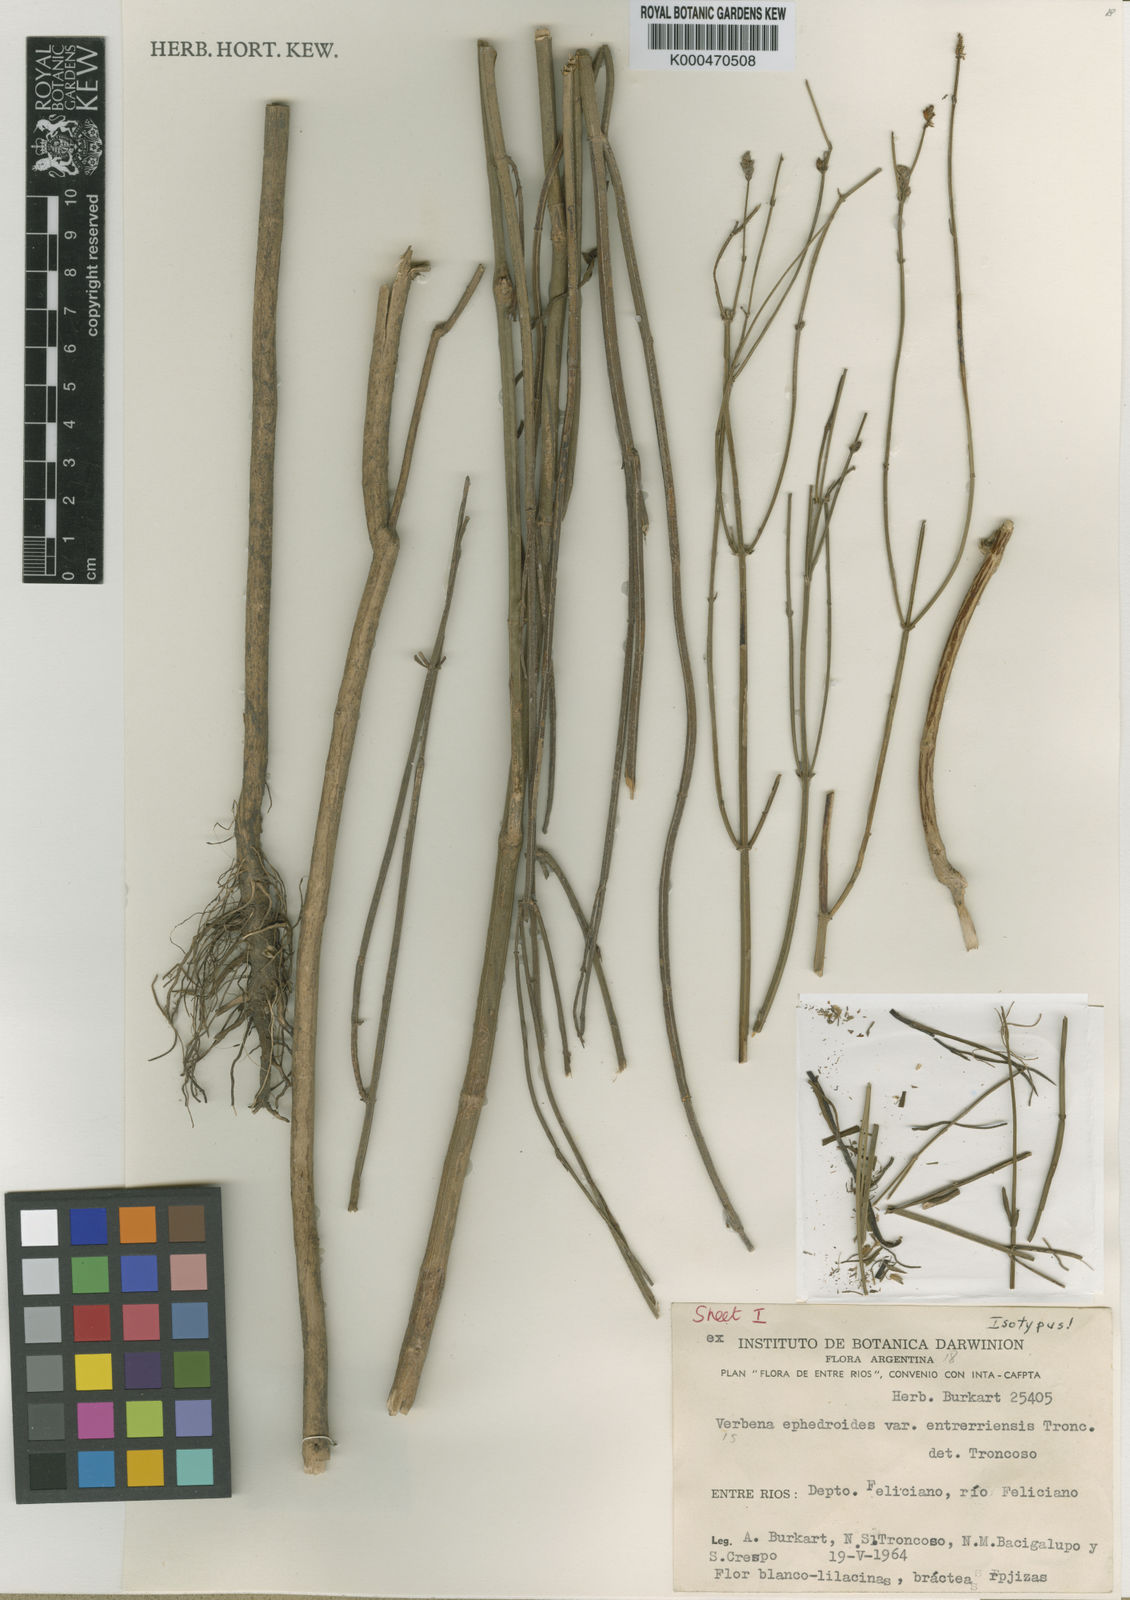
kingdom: Plantae
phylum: Tracheophyta
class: Magnoliopsida
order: Lamiales
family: Verbenaceae
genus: Verbena
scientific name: Verbena ephedroides
